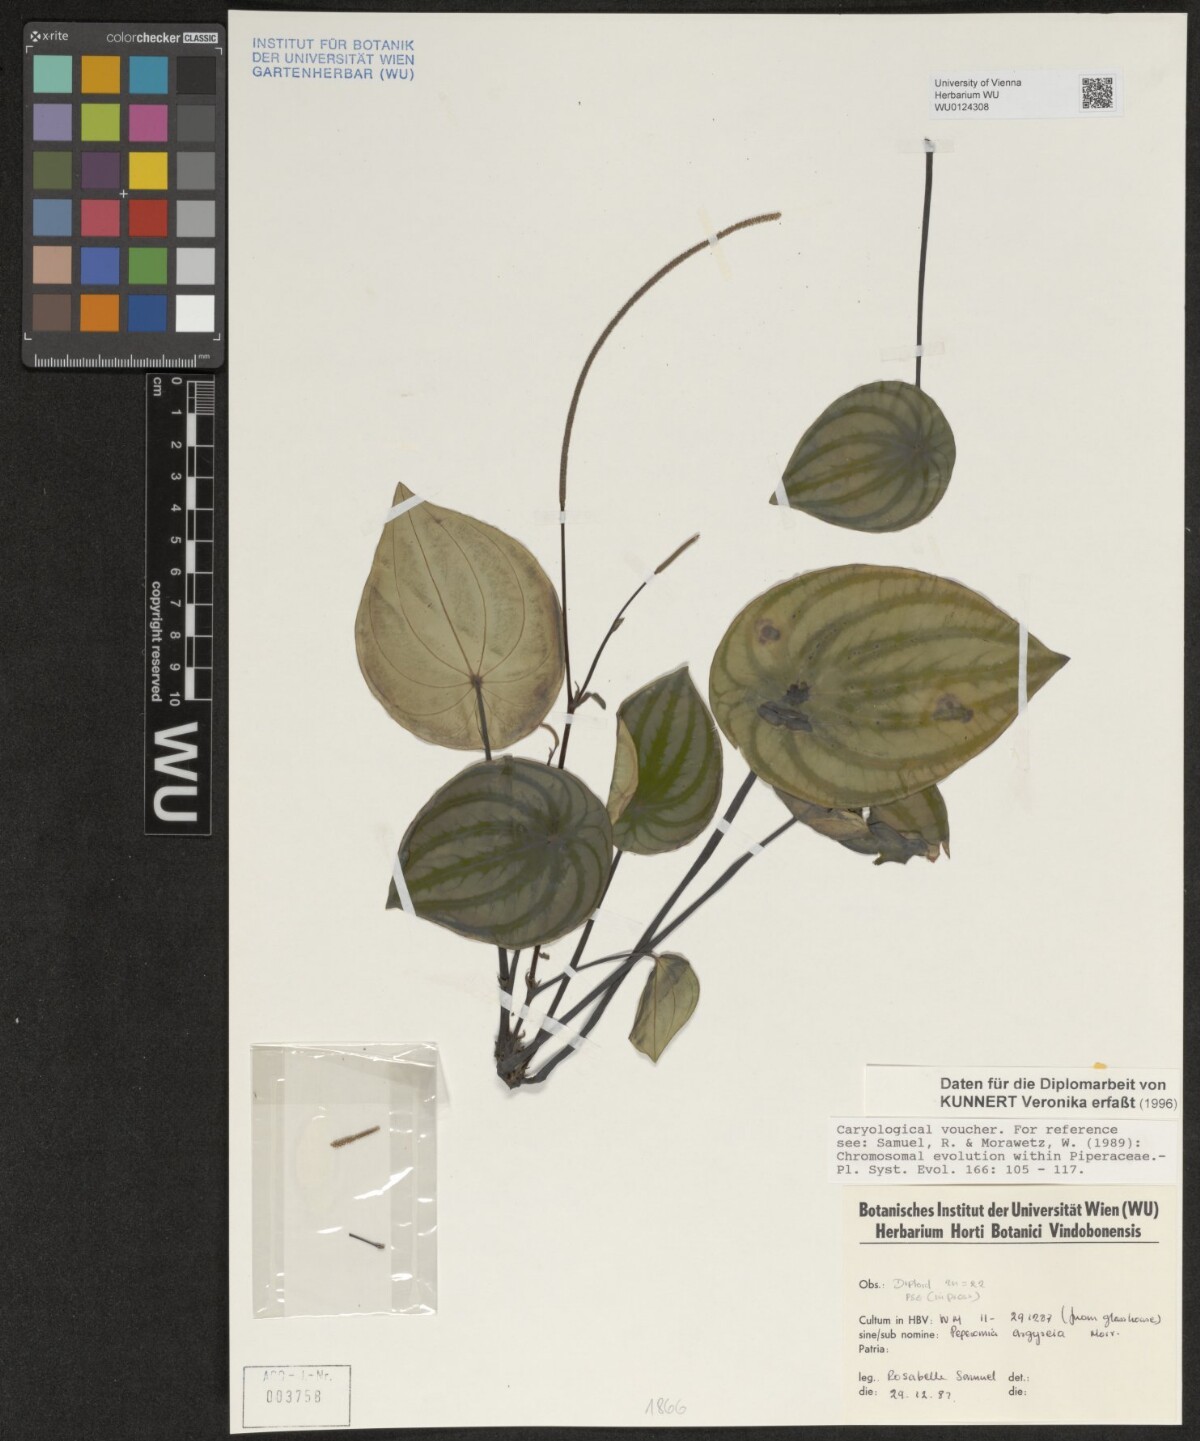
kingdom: Plantae
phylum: Tracheophyta
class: Magnoliopsida
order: Piperales
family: Piperaceae
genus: Peperomia
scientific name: Peperomia argyreia
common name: Watermelon pepper
